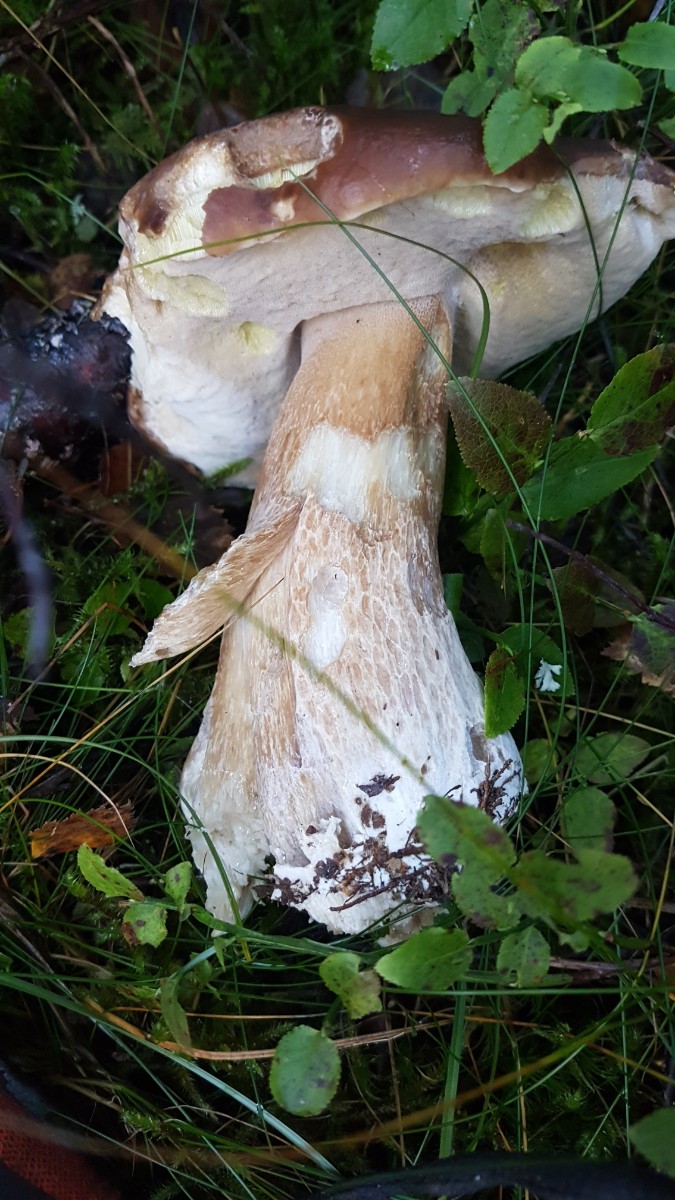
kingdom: Fungi
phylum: Basidiomycota
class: Agaricomycetes
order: Boletales
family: Boletaceae
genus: Boletus
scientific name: Boletus edulis
